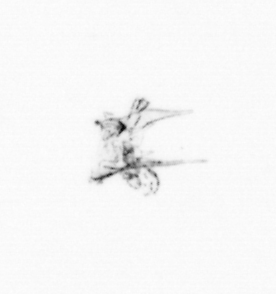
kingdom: Chromista
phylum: Ochrophyta
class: Bacillariophyceae
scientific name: Bacillariophyceae
